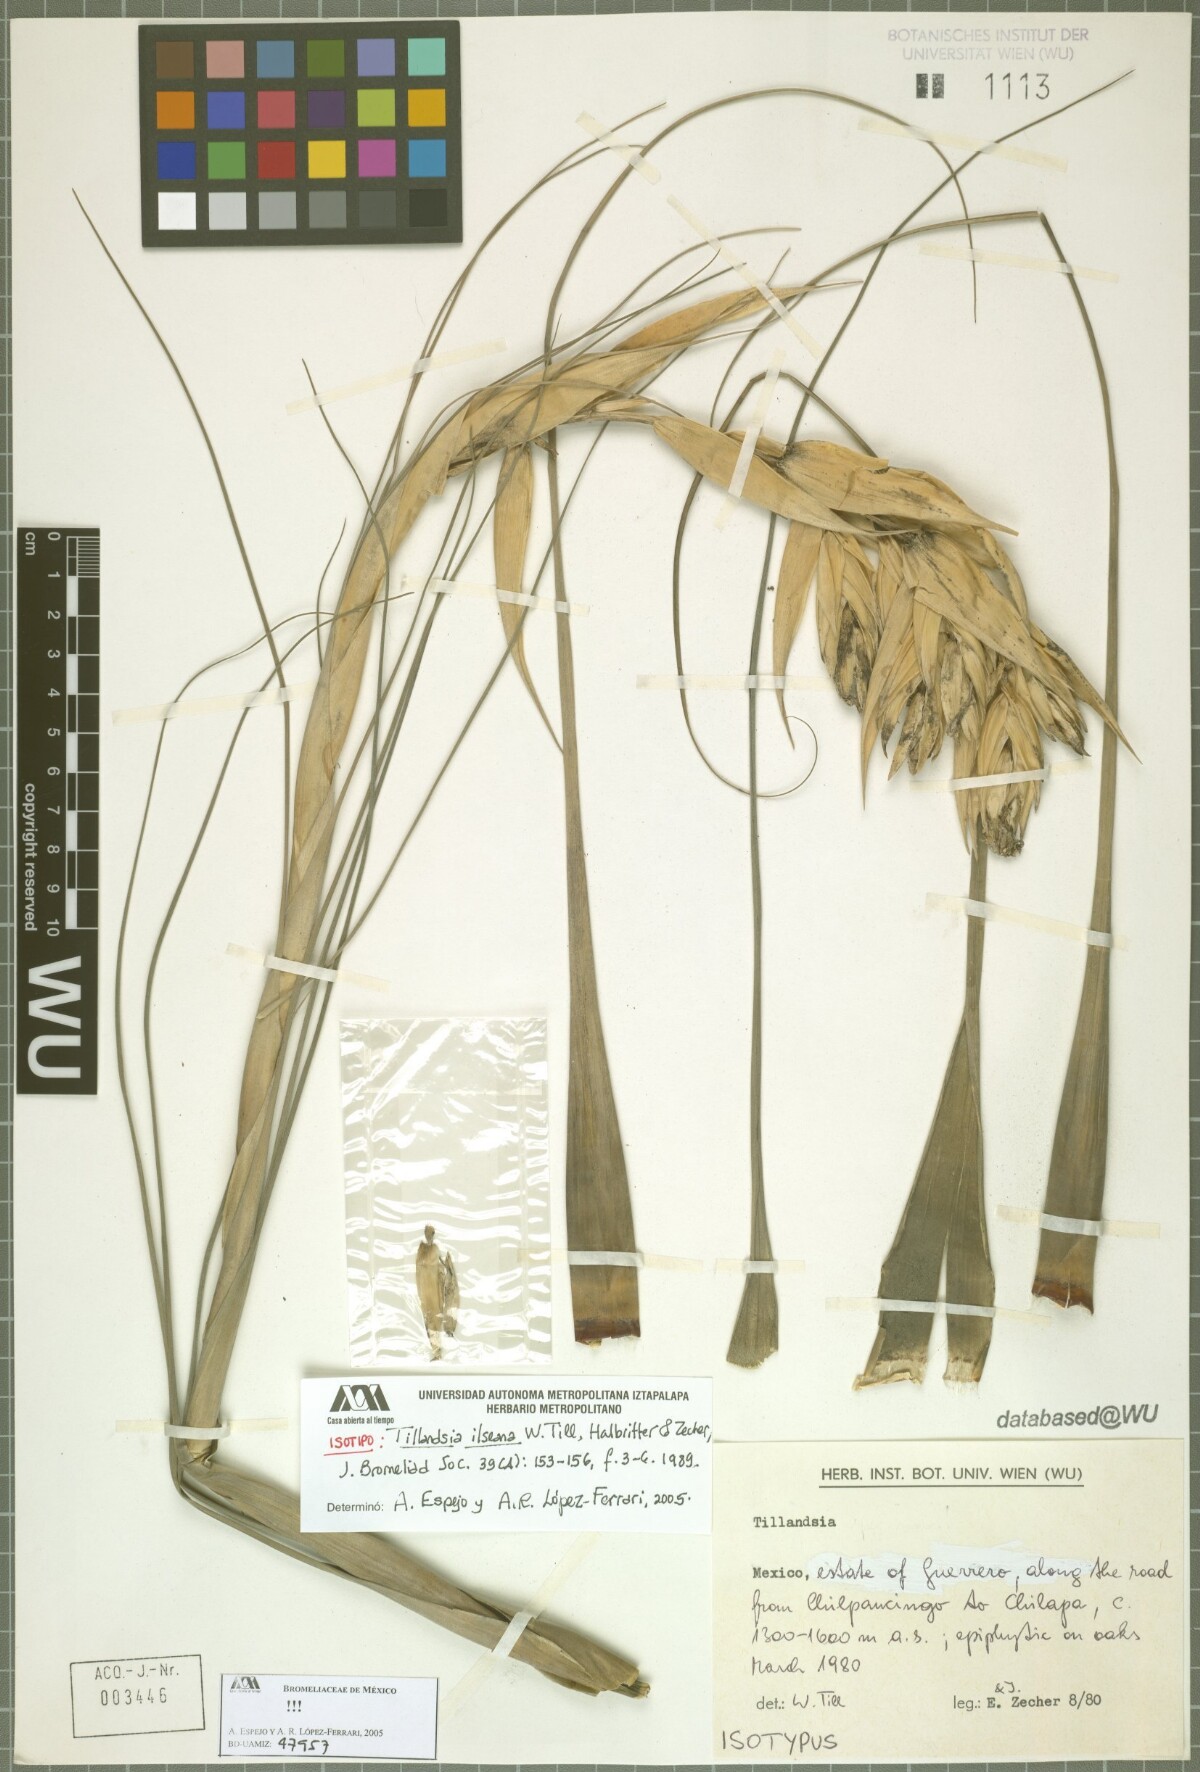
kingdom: Plantae
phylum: Tracheophyta
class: Liliopsida
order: Poales
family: Bromeliaceae
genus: Tillandsia
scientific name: Tillandsia ilseana
